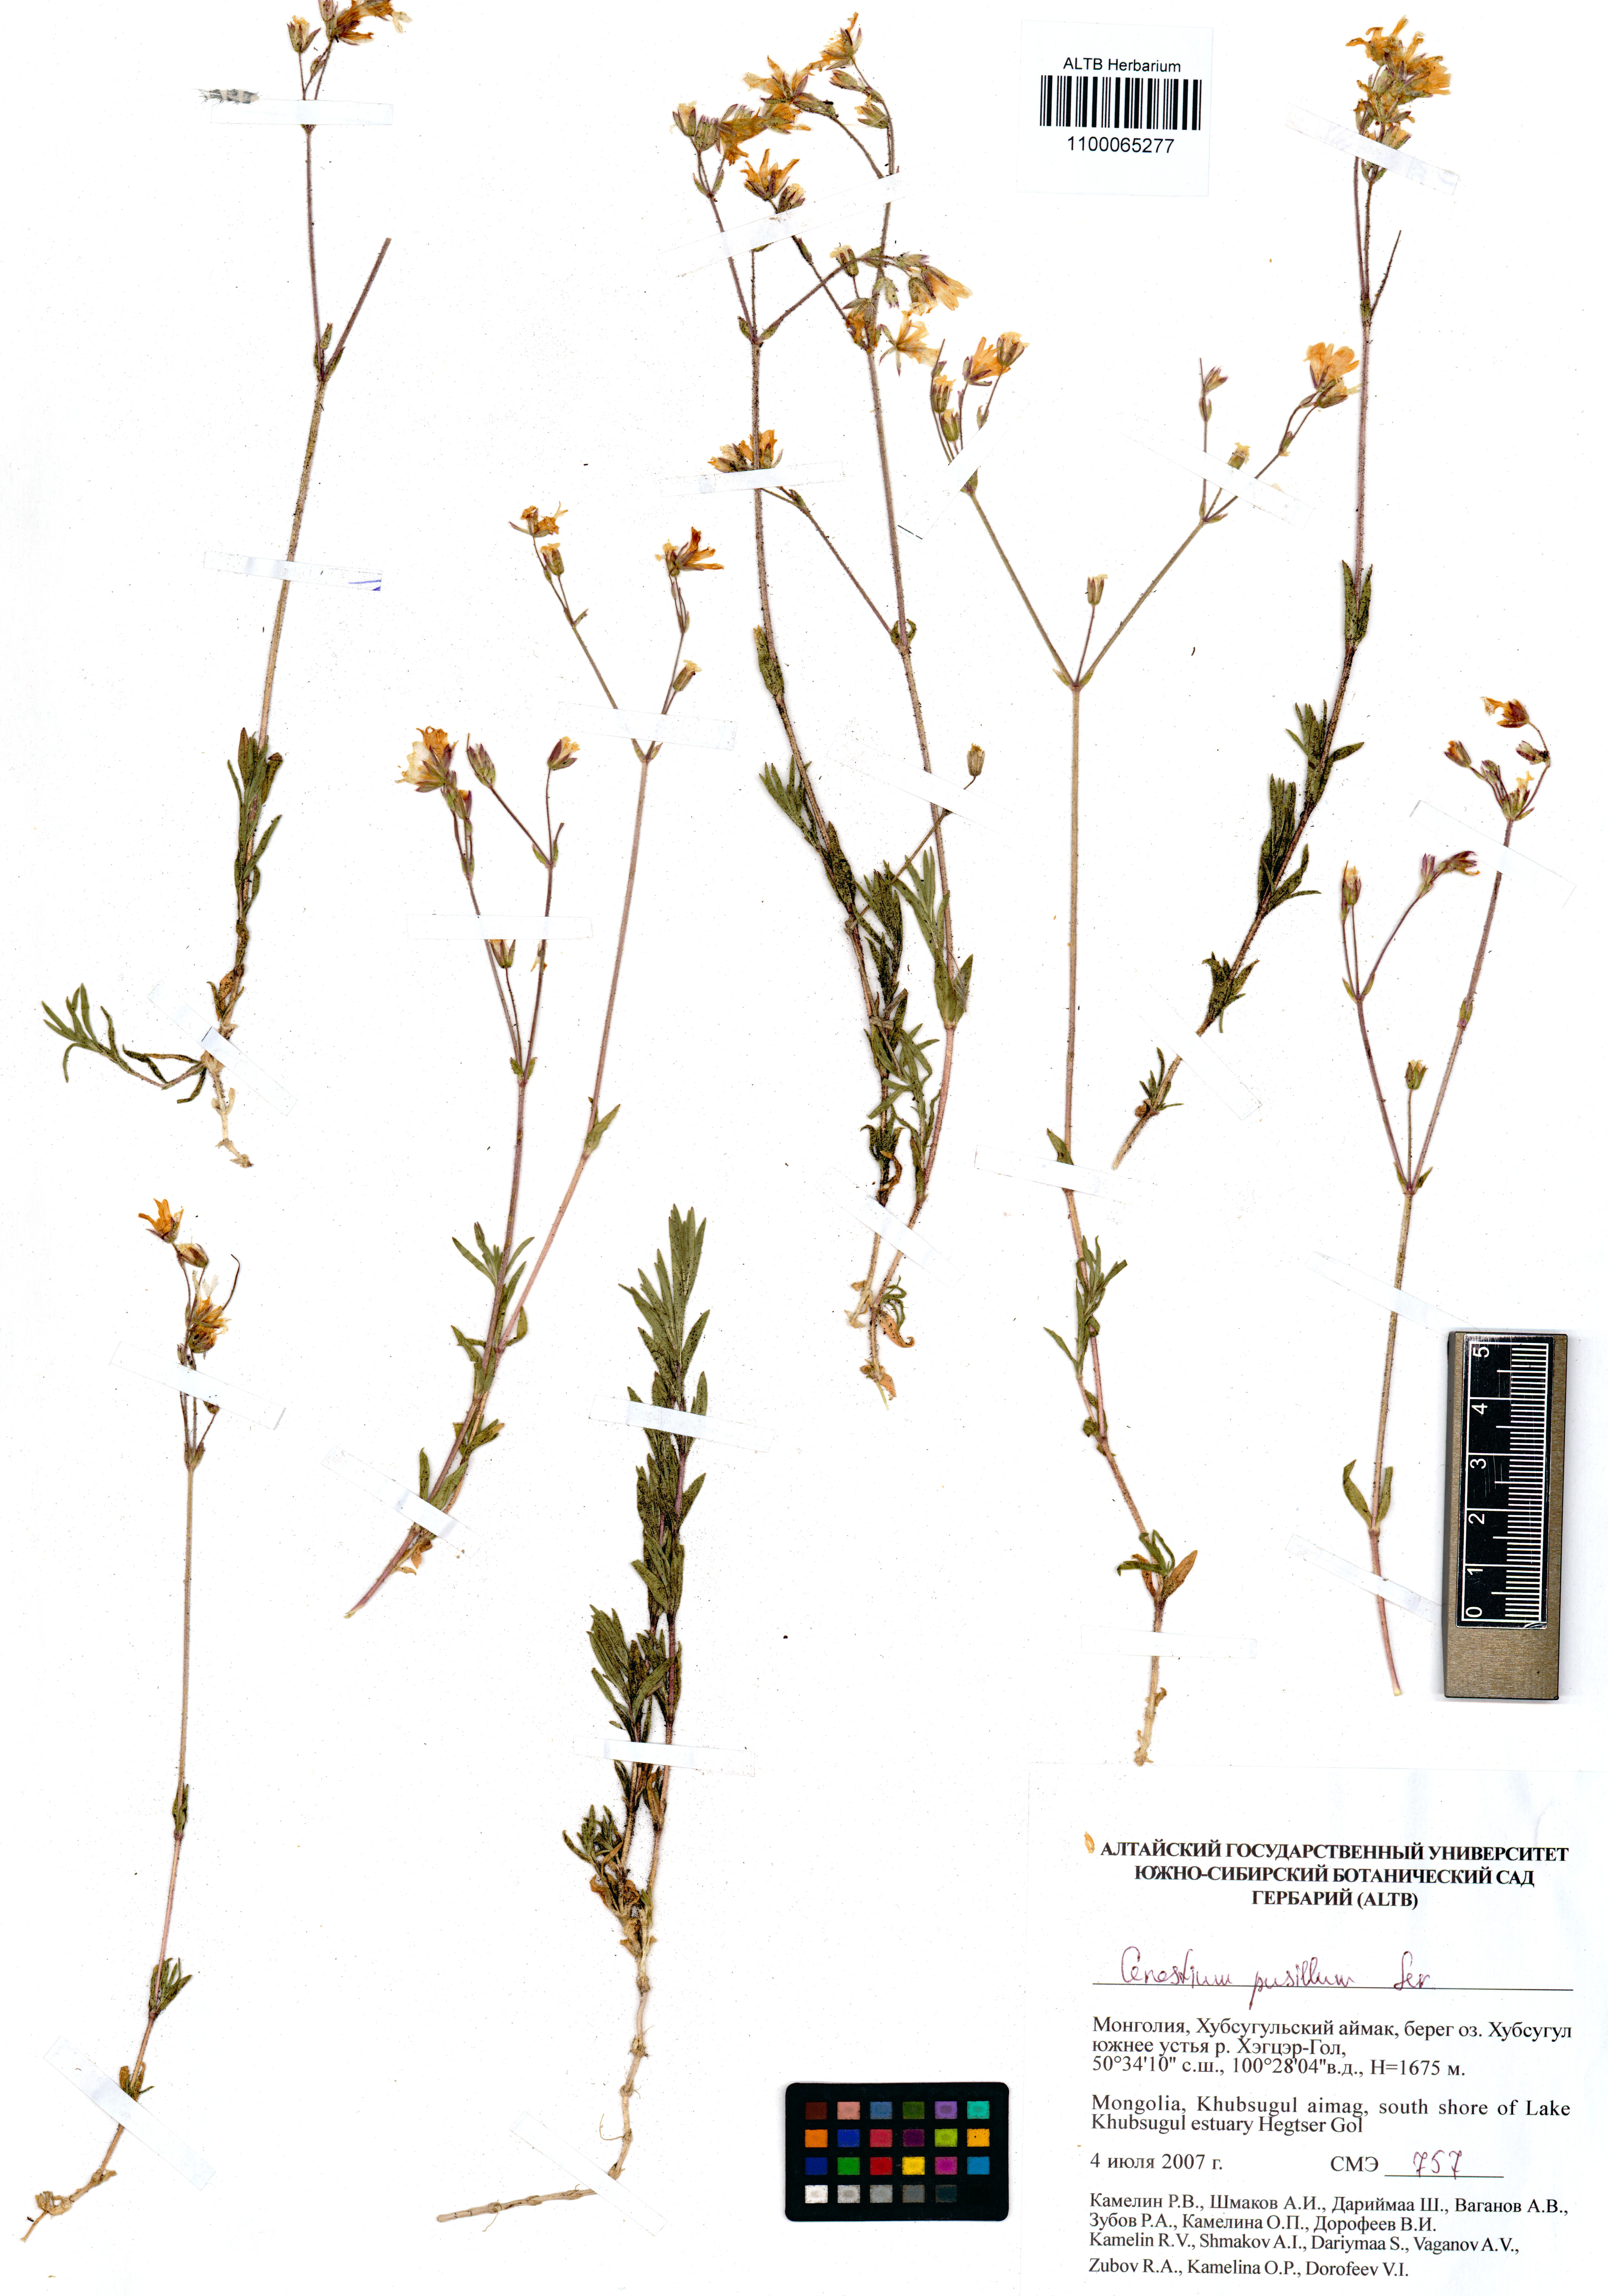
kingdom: Plantae
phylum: Tracheophyta
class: Magnoliopsida
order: Caryophyllales
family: Caryophyllaceae
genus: Cerastium
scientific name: Cerastium pusillum
